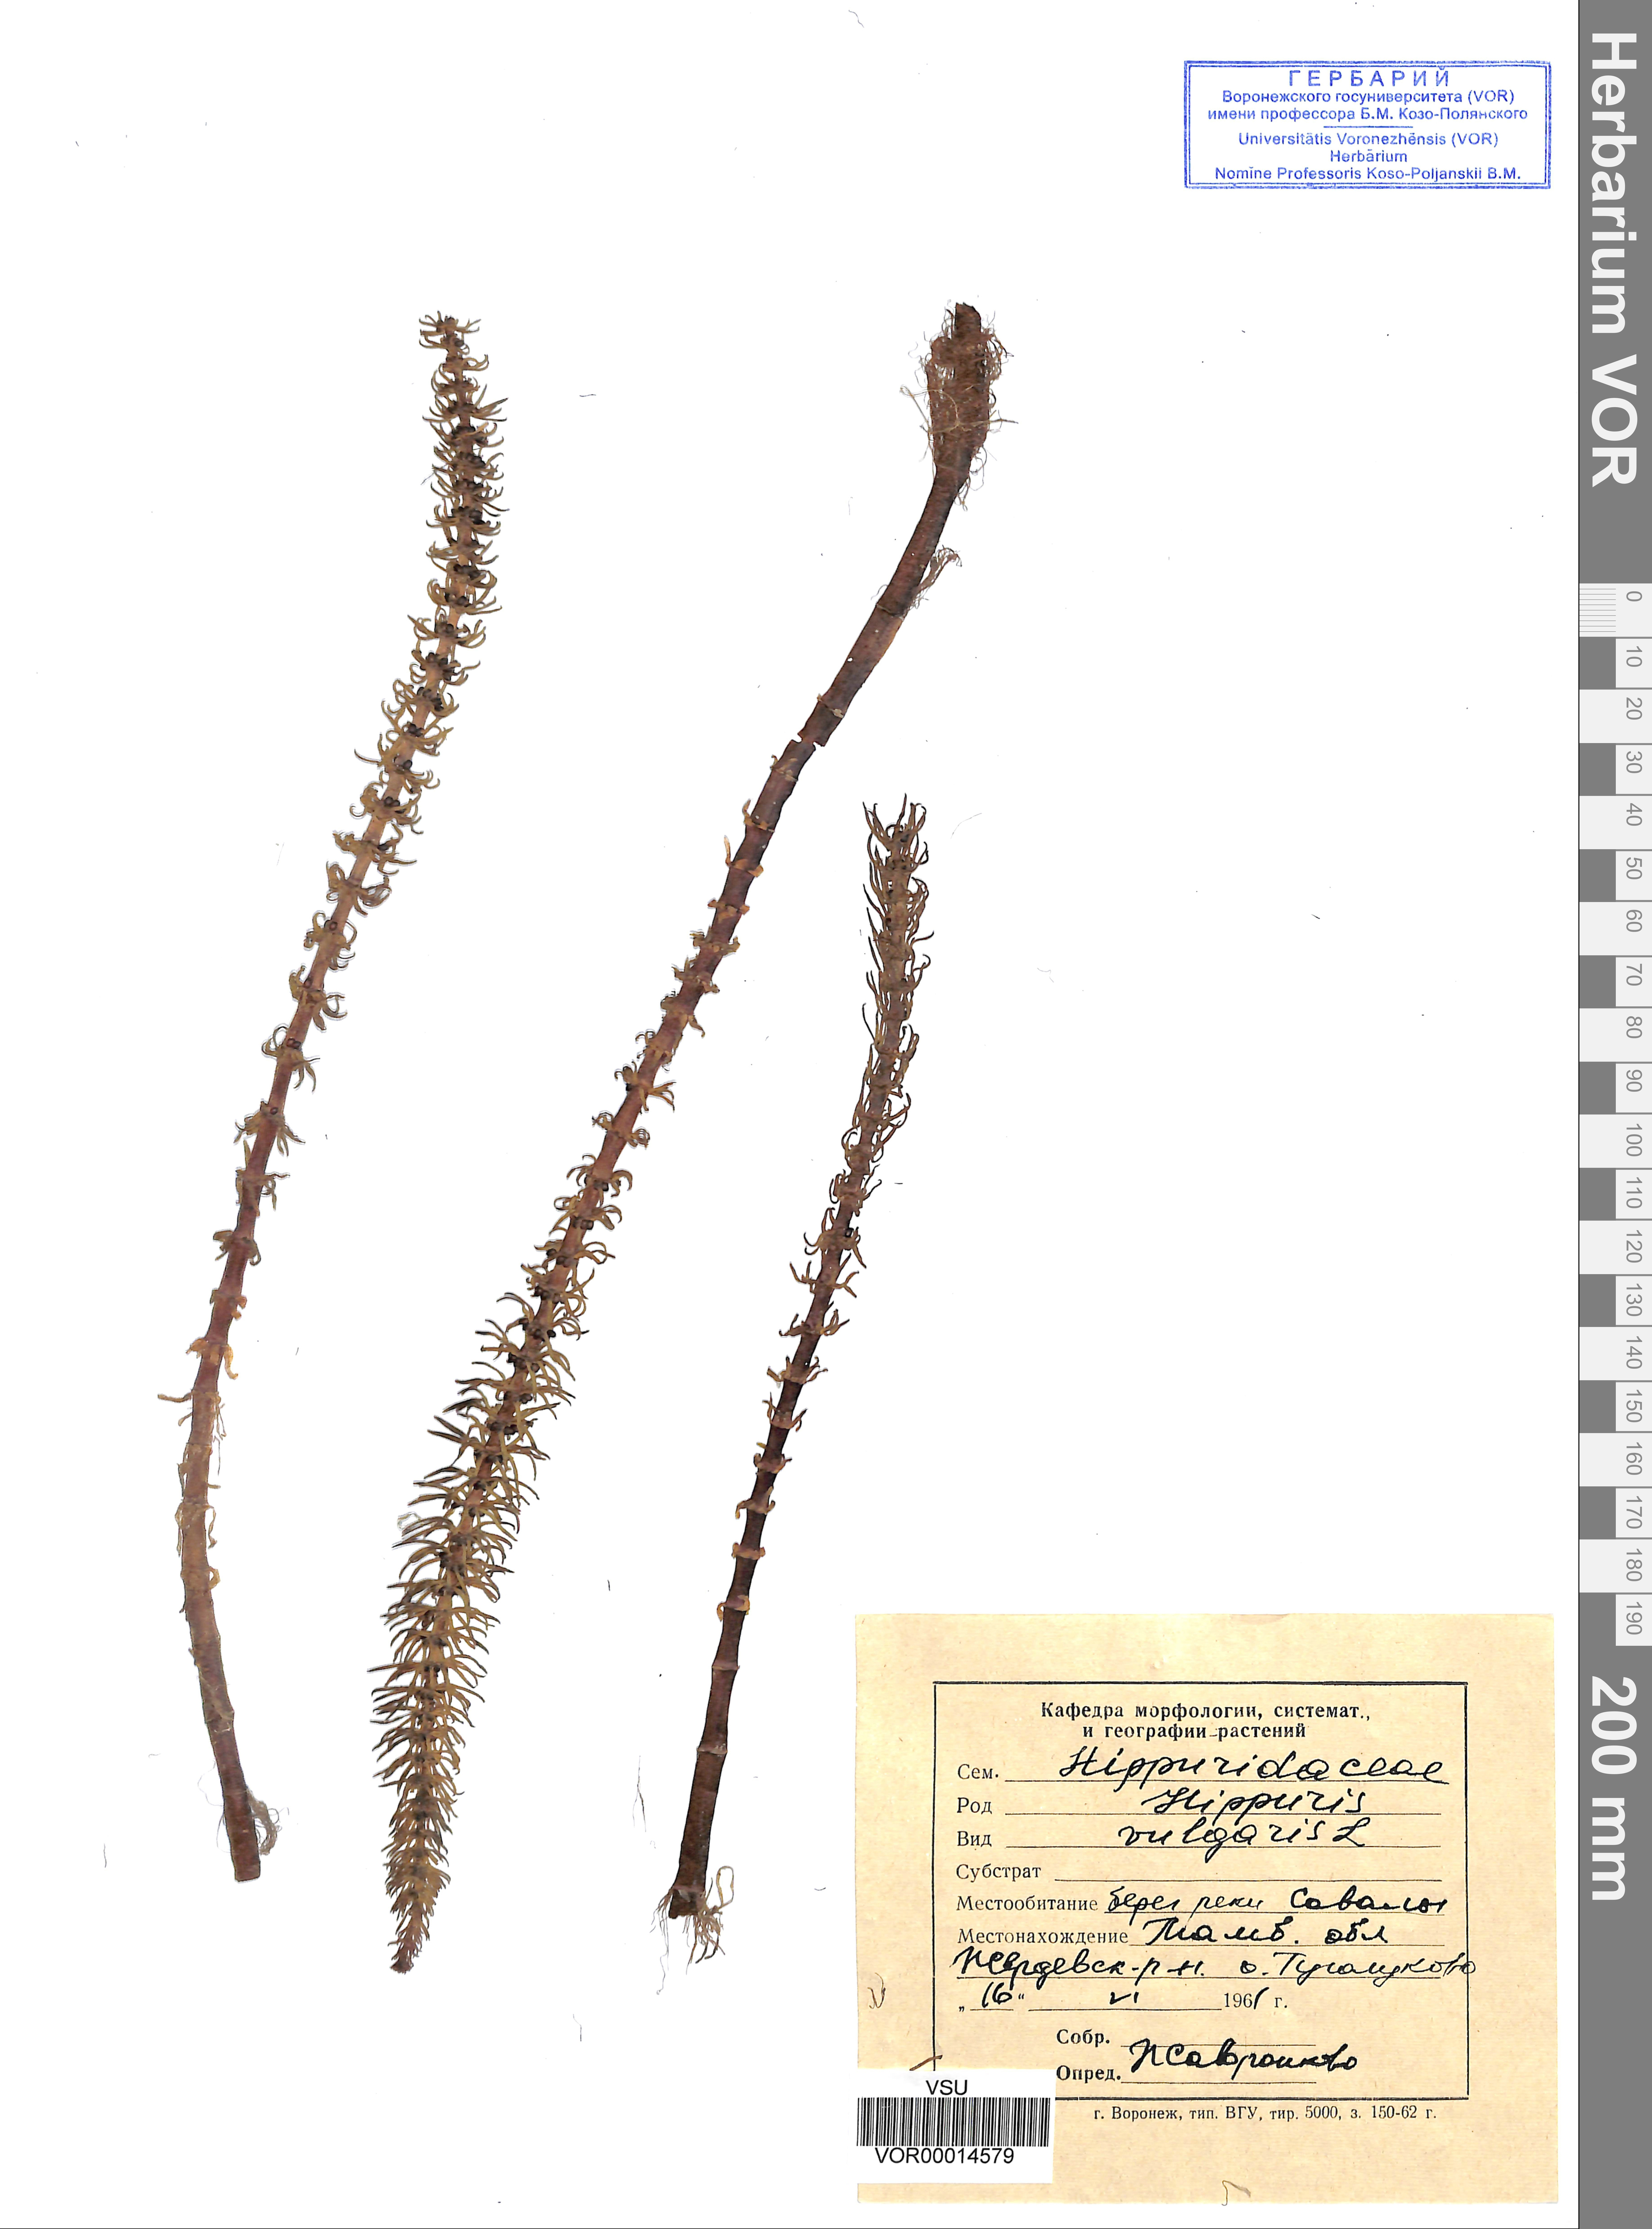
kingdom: Plantae
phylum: Tracheophyta
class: Magnoliopsida
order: Lamiales
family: Plantaginaceae
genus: Hippuris
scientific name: Hippuris vulgaris
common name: Mare's-tail
